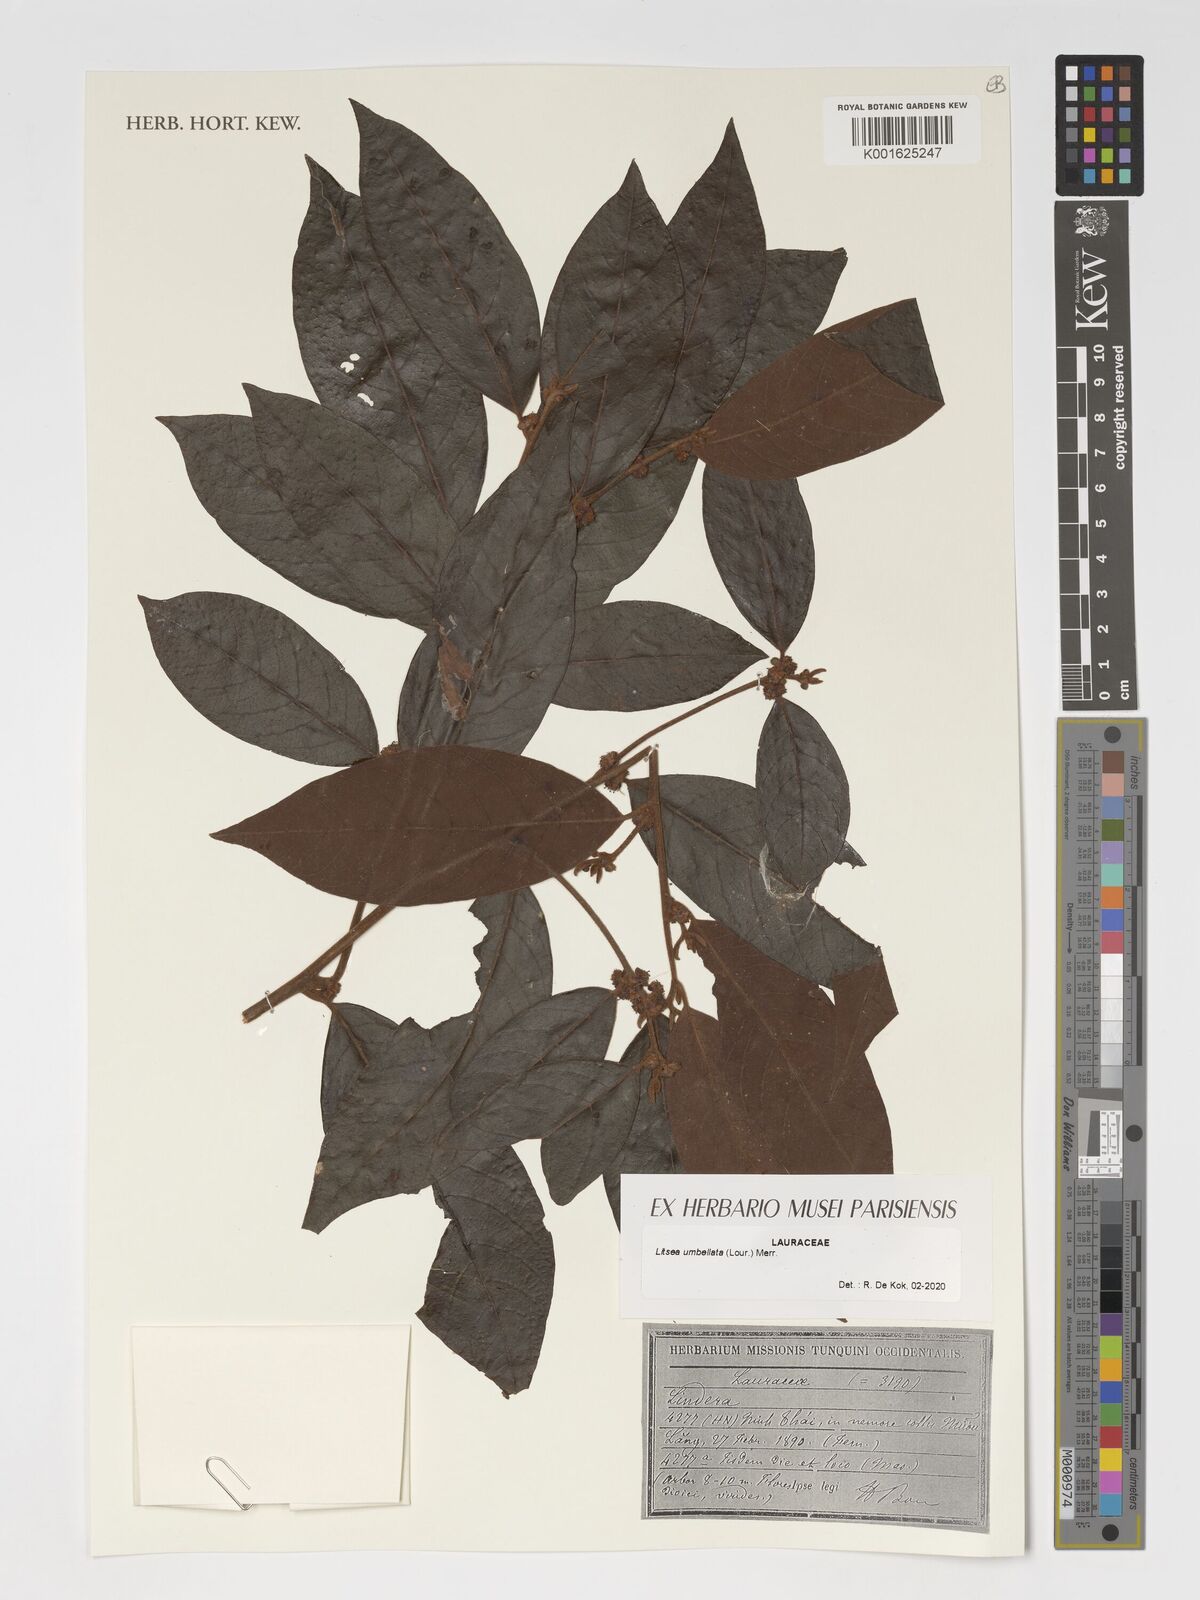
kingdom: Plantae
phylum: Tracheophyta
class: Magnoliopsida
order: Laurales
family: Lauraceae
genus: Litsea
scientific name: Litsea umbellata
